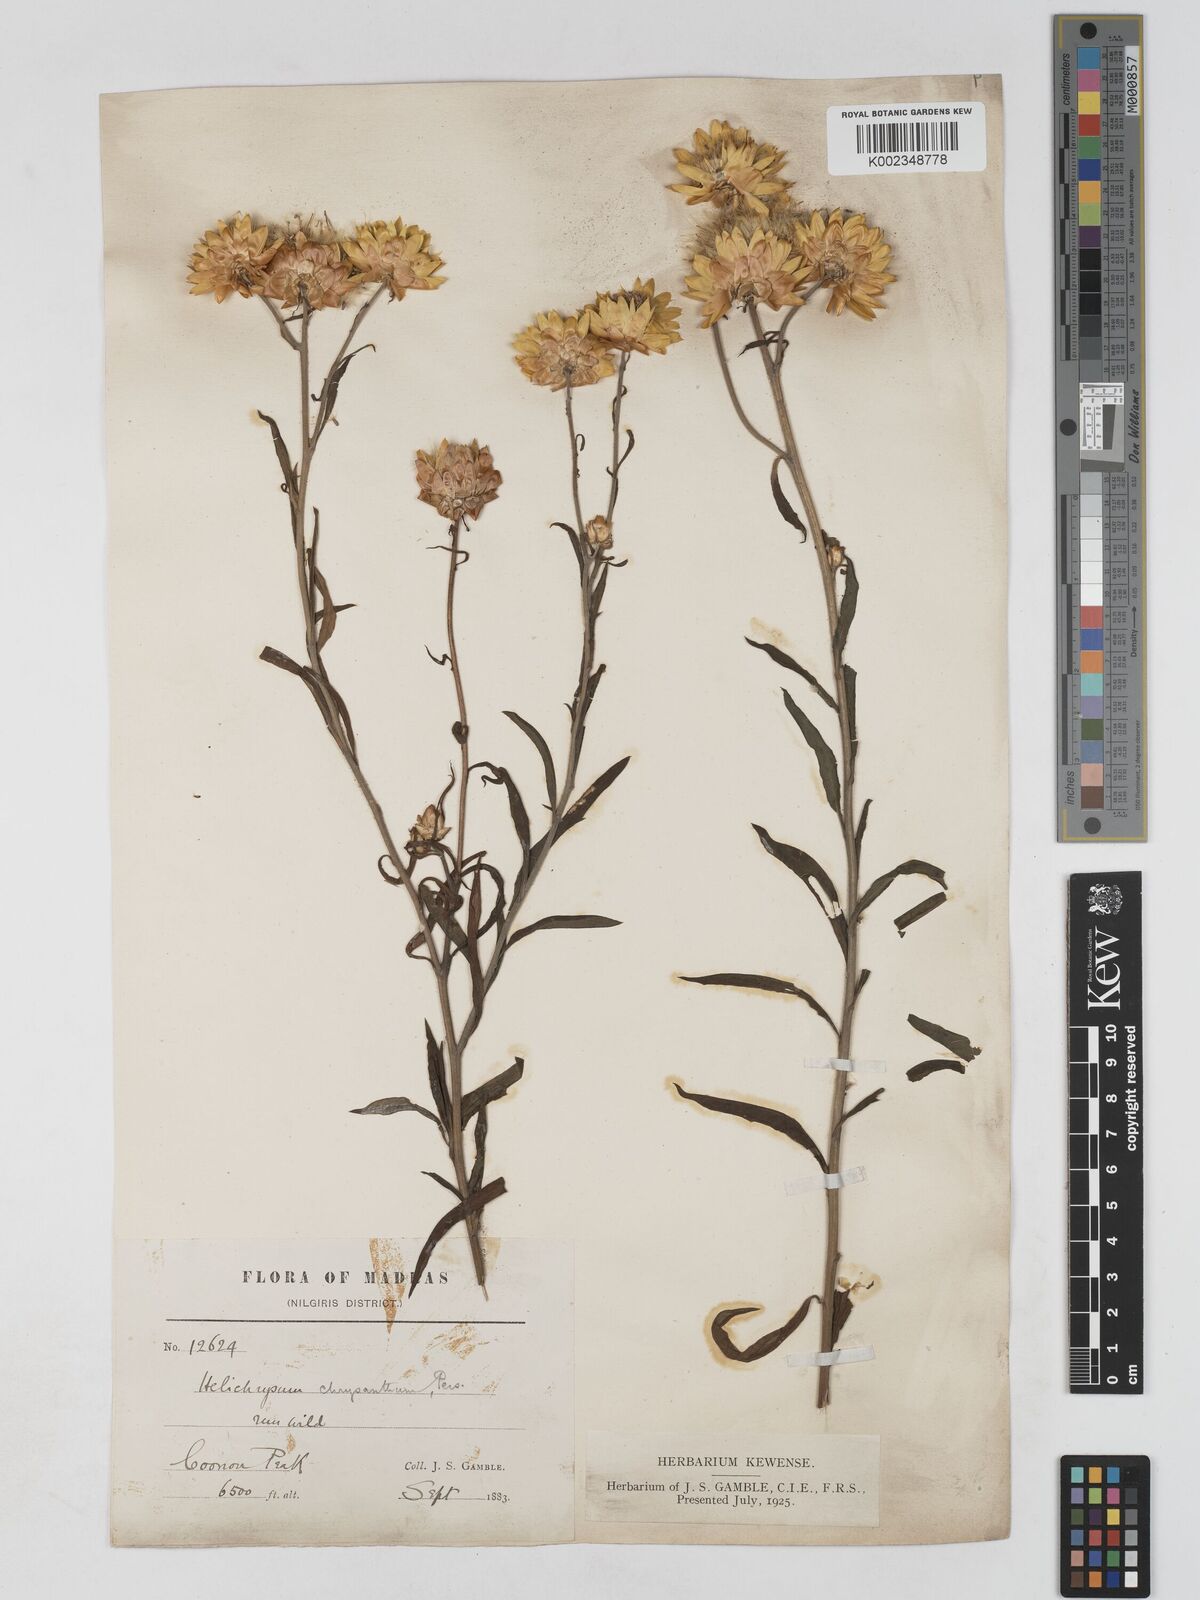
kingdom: Plantae
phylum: Tracheophyta
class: Magnoliopsida
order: Asterales
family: Asteraceae
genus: Xerochrysum
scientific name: Xerochrysum bracteatum
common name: Bracted strawflower
